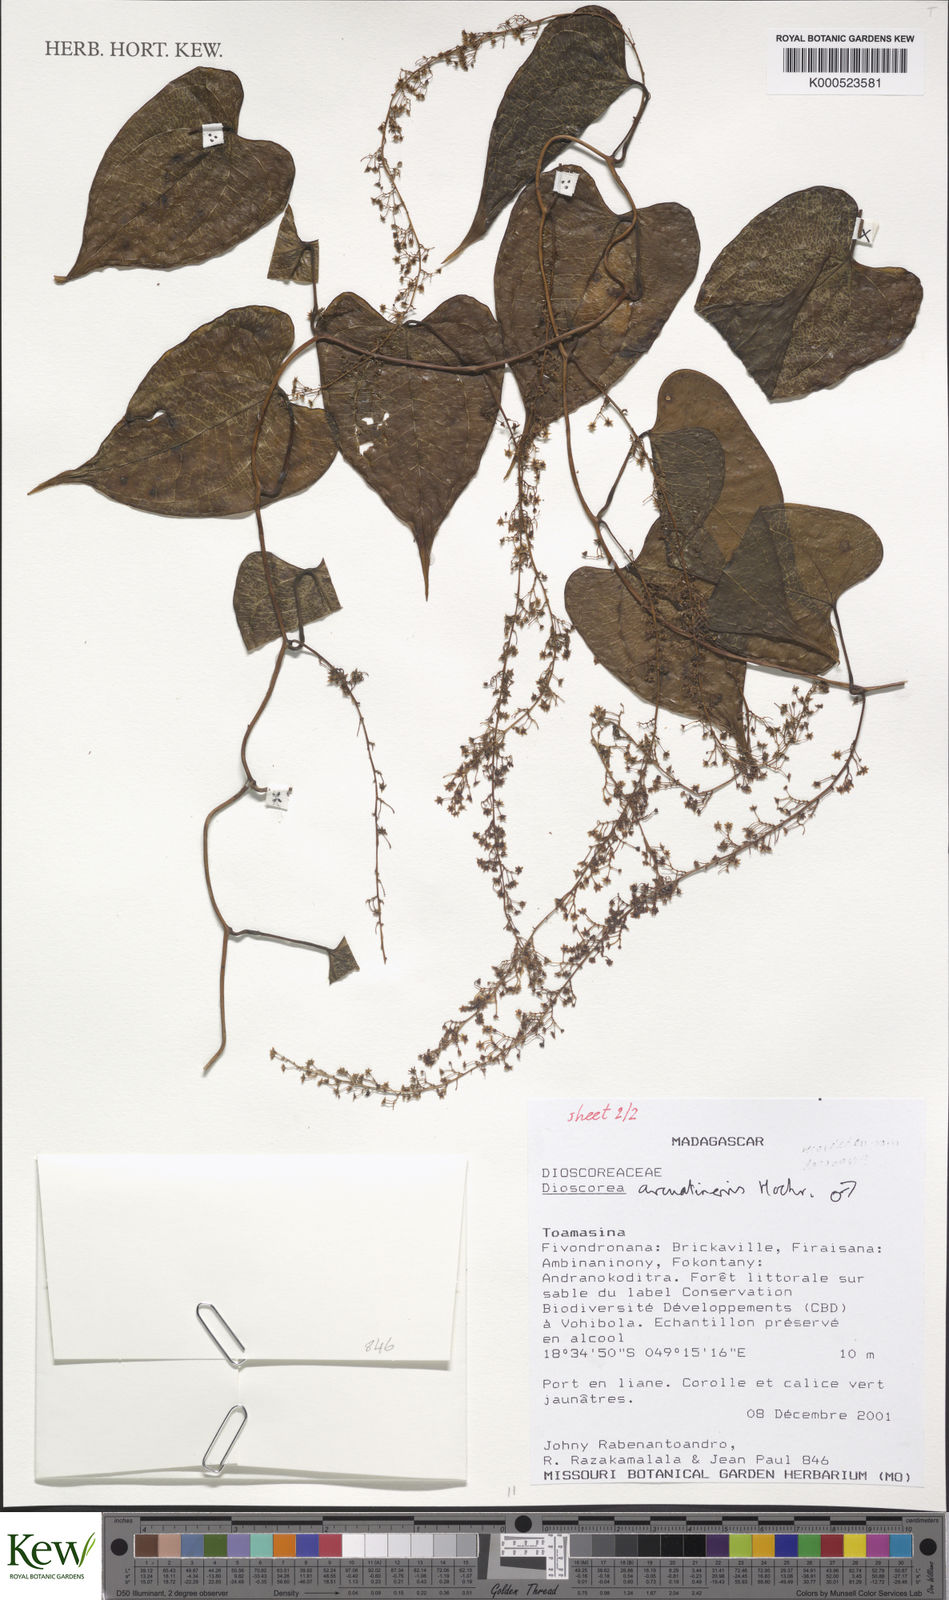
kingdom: Plantae
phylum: Tracheophyta
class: Liliopsida
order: Dioscoreales
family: Dioscoreaceae
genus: Dioscorea
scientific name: Dioscorea arcuatinervis
